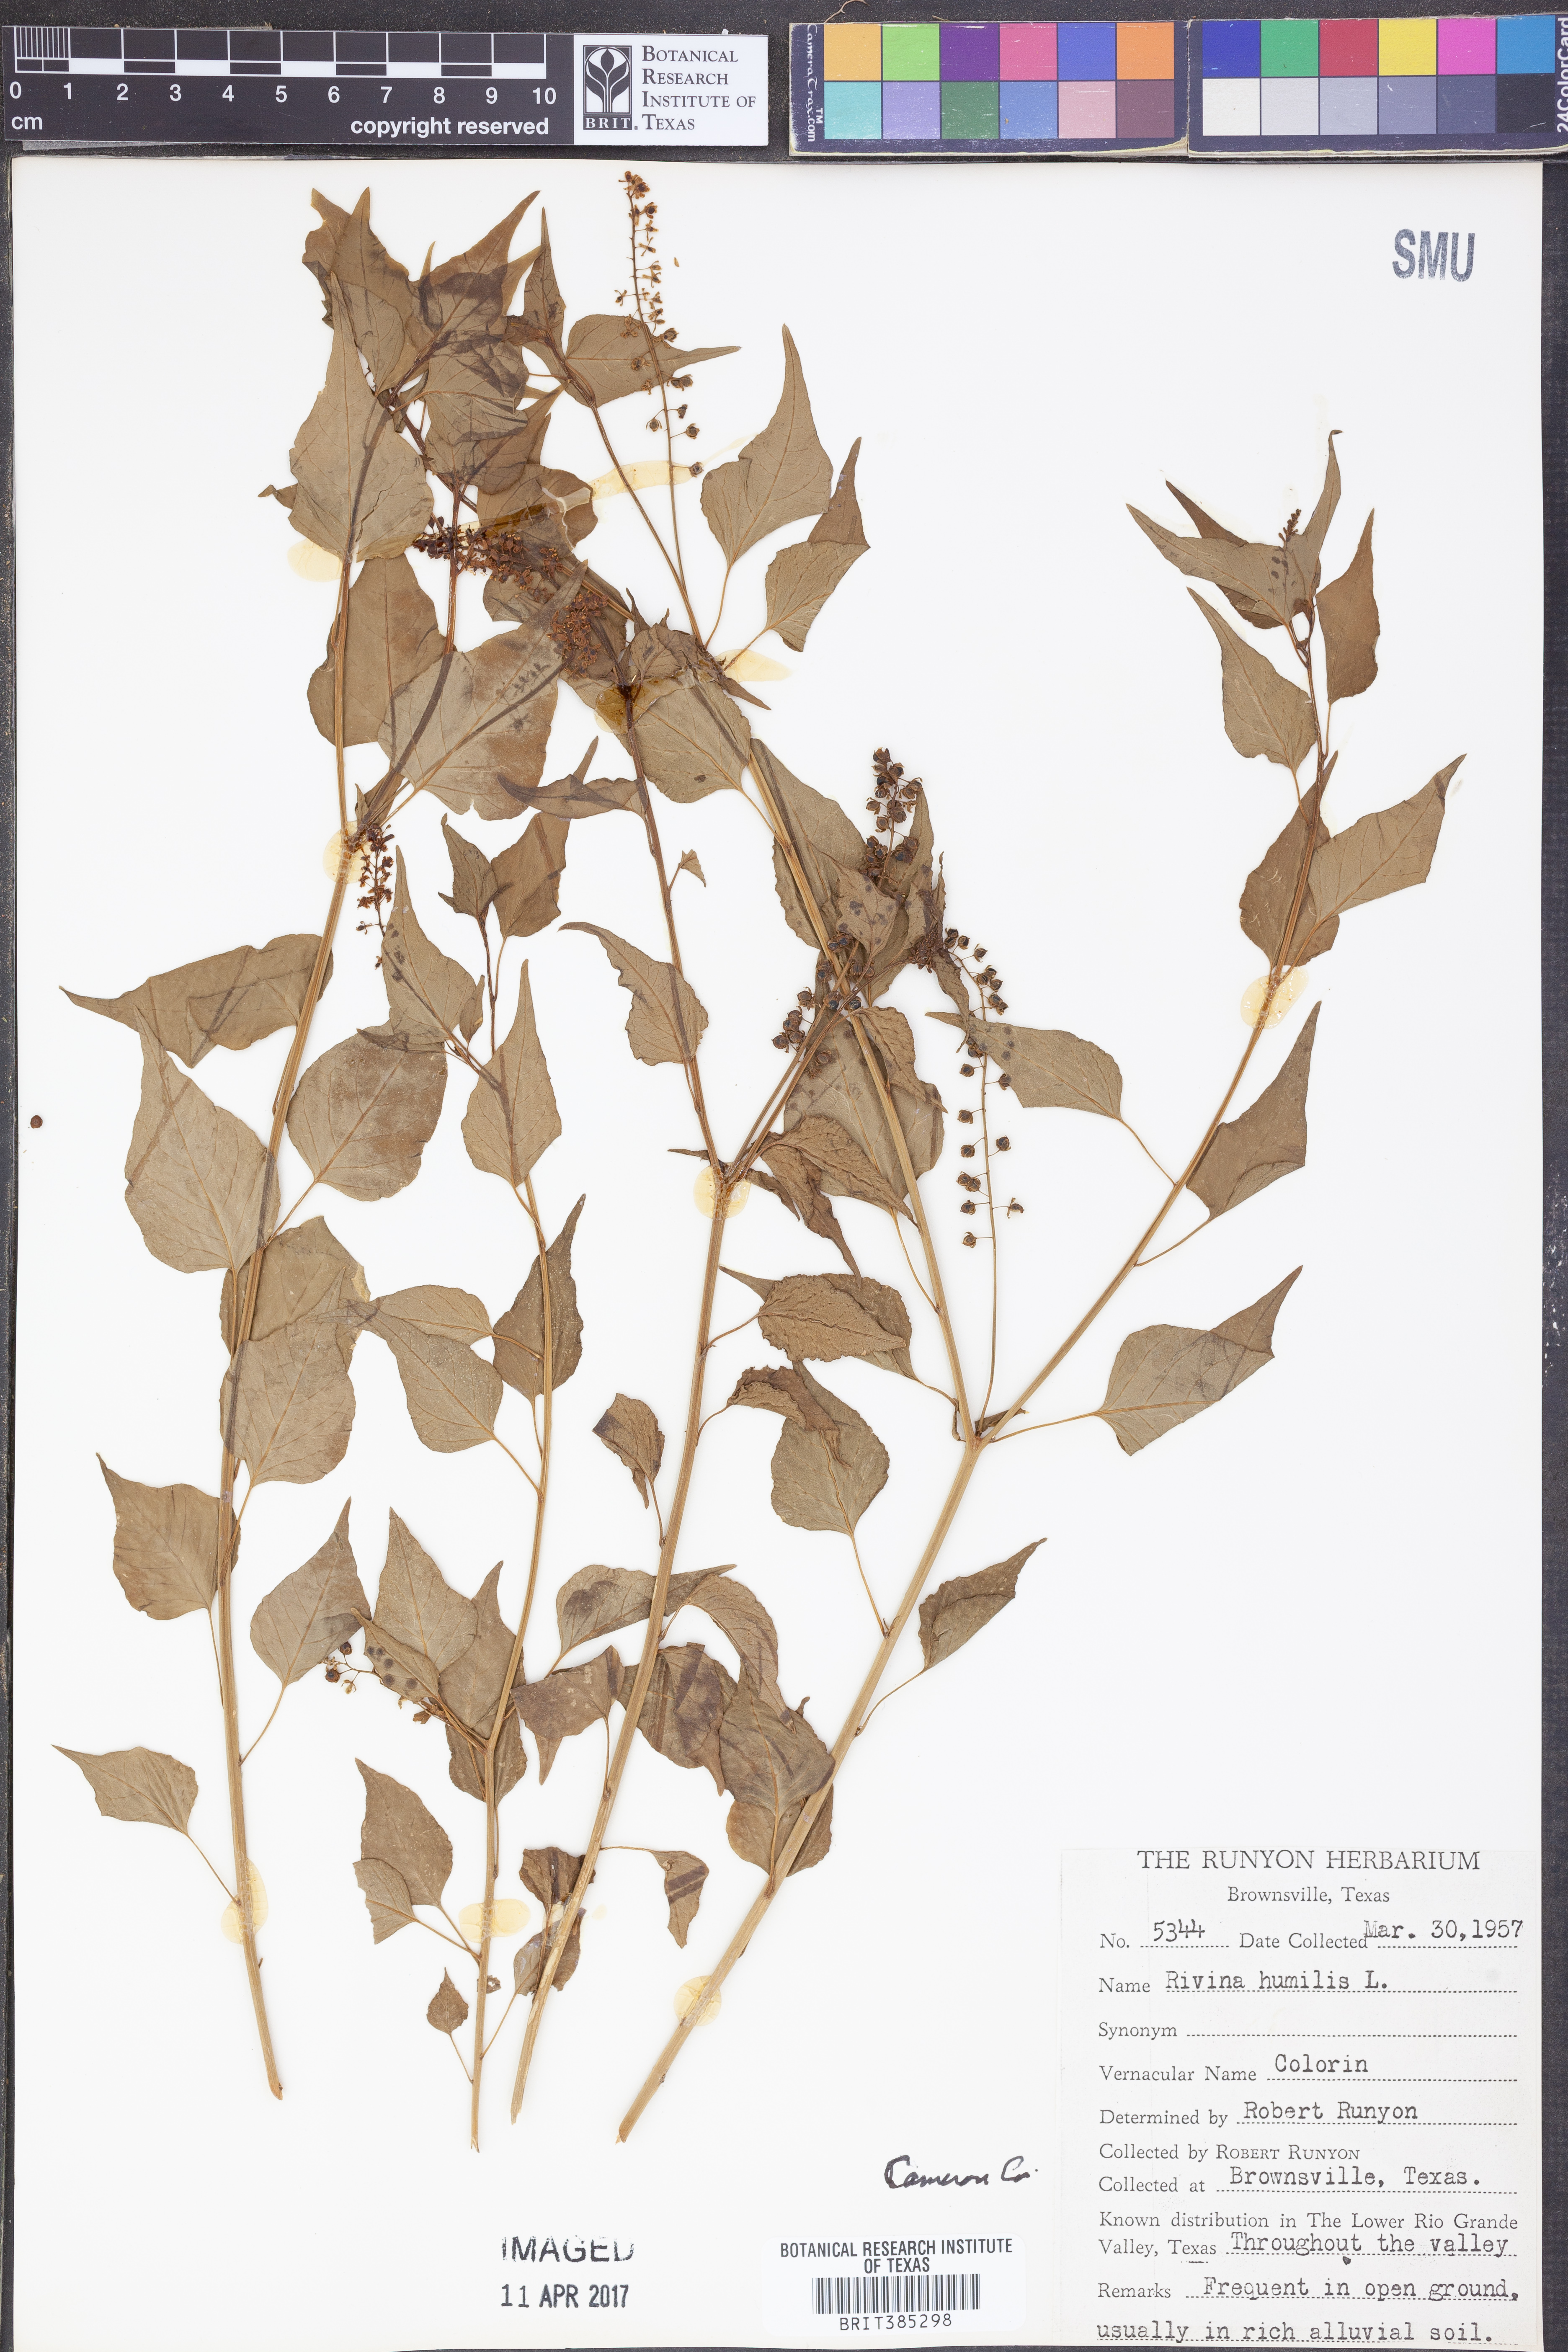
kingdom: Plantae
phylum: Tracheophyta
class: Magnoliopsida
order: Caryophyllales
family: Phytolaccaceae
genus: Rivina
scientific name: Rivina humilis
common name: Rougeplant
